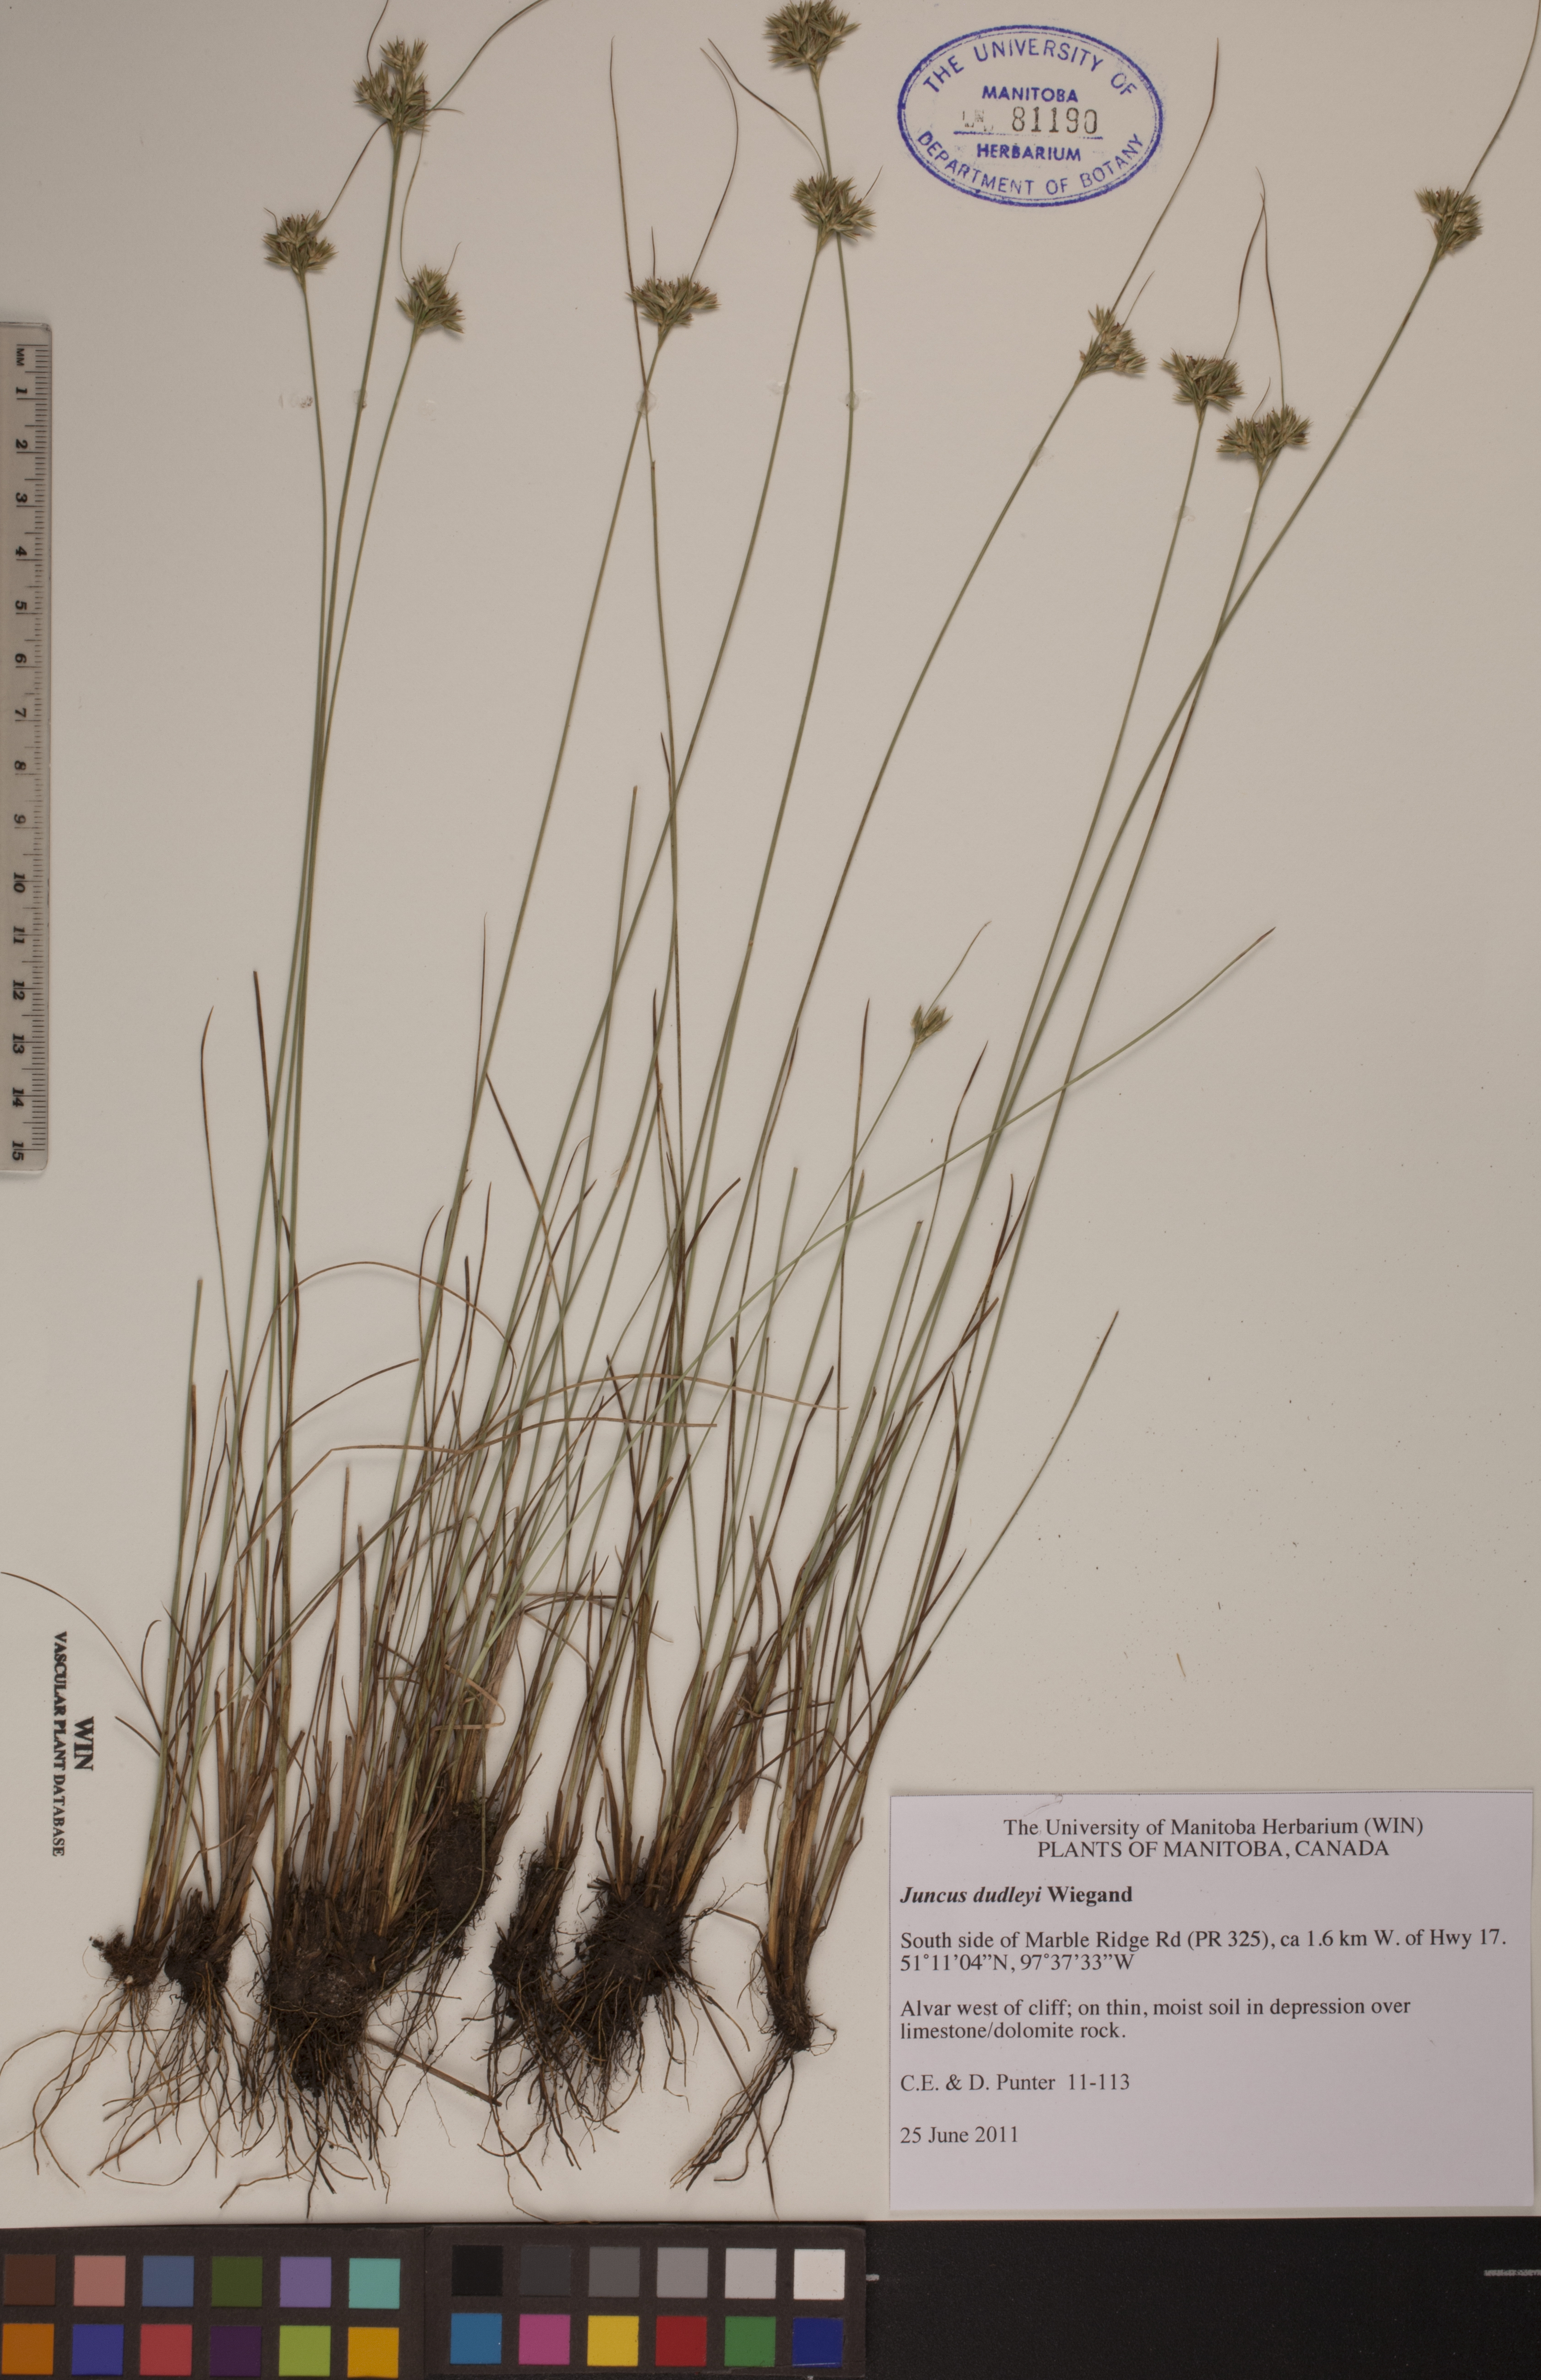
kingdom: Plantae
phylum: Tracheophyta
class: Liliopsida
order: Poales
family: Juncaceae
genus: Juncus
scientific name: Juncus dudleyi
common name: Dudley's rush
